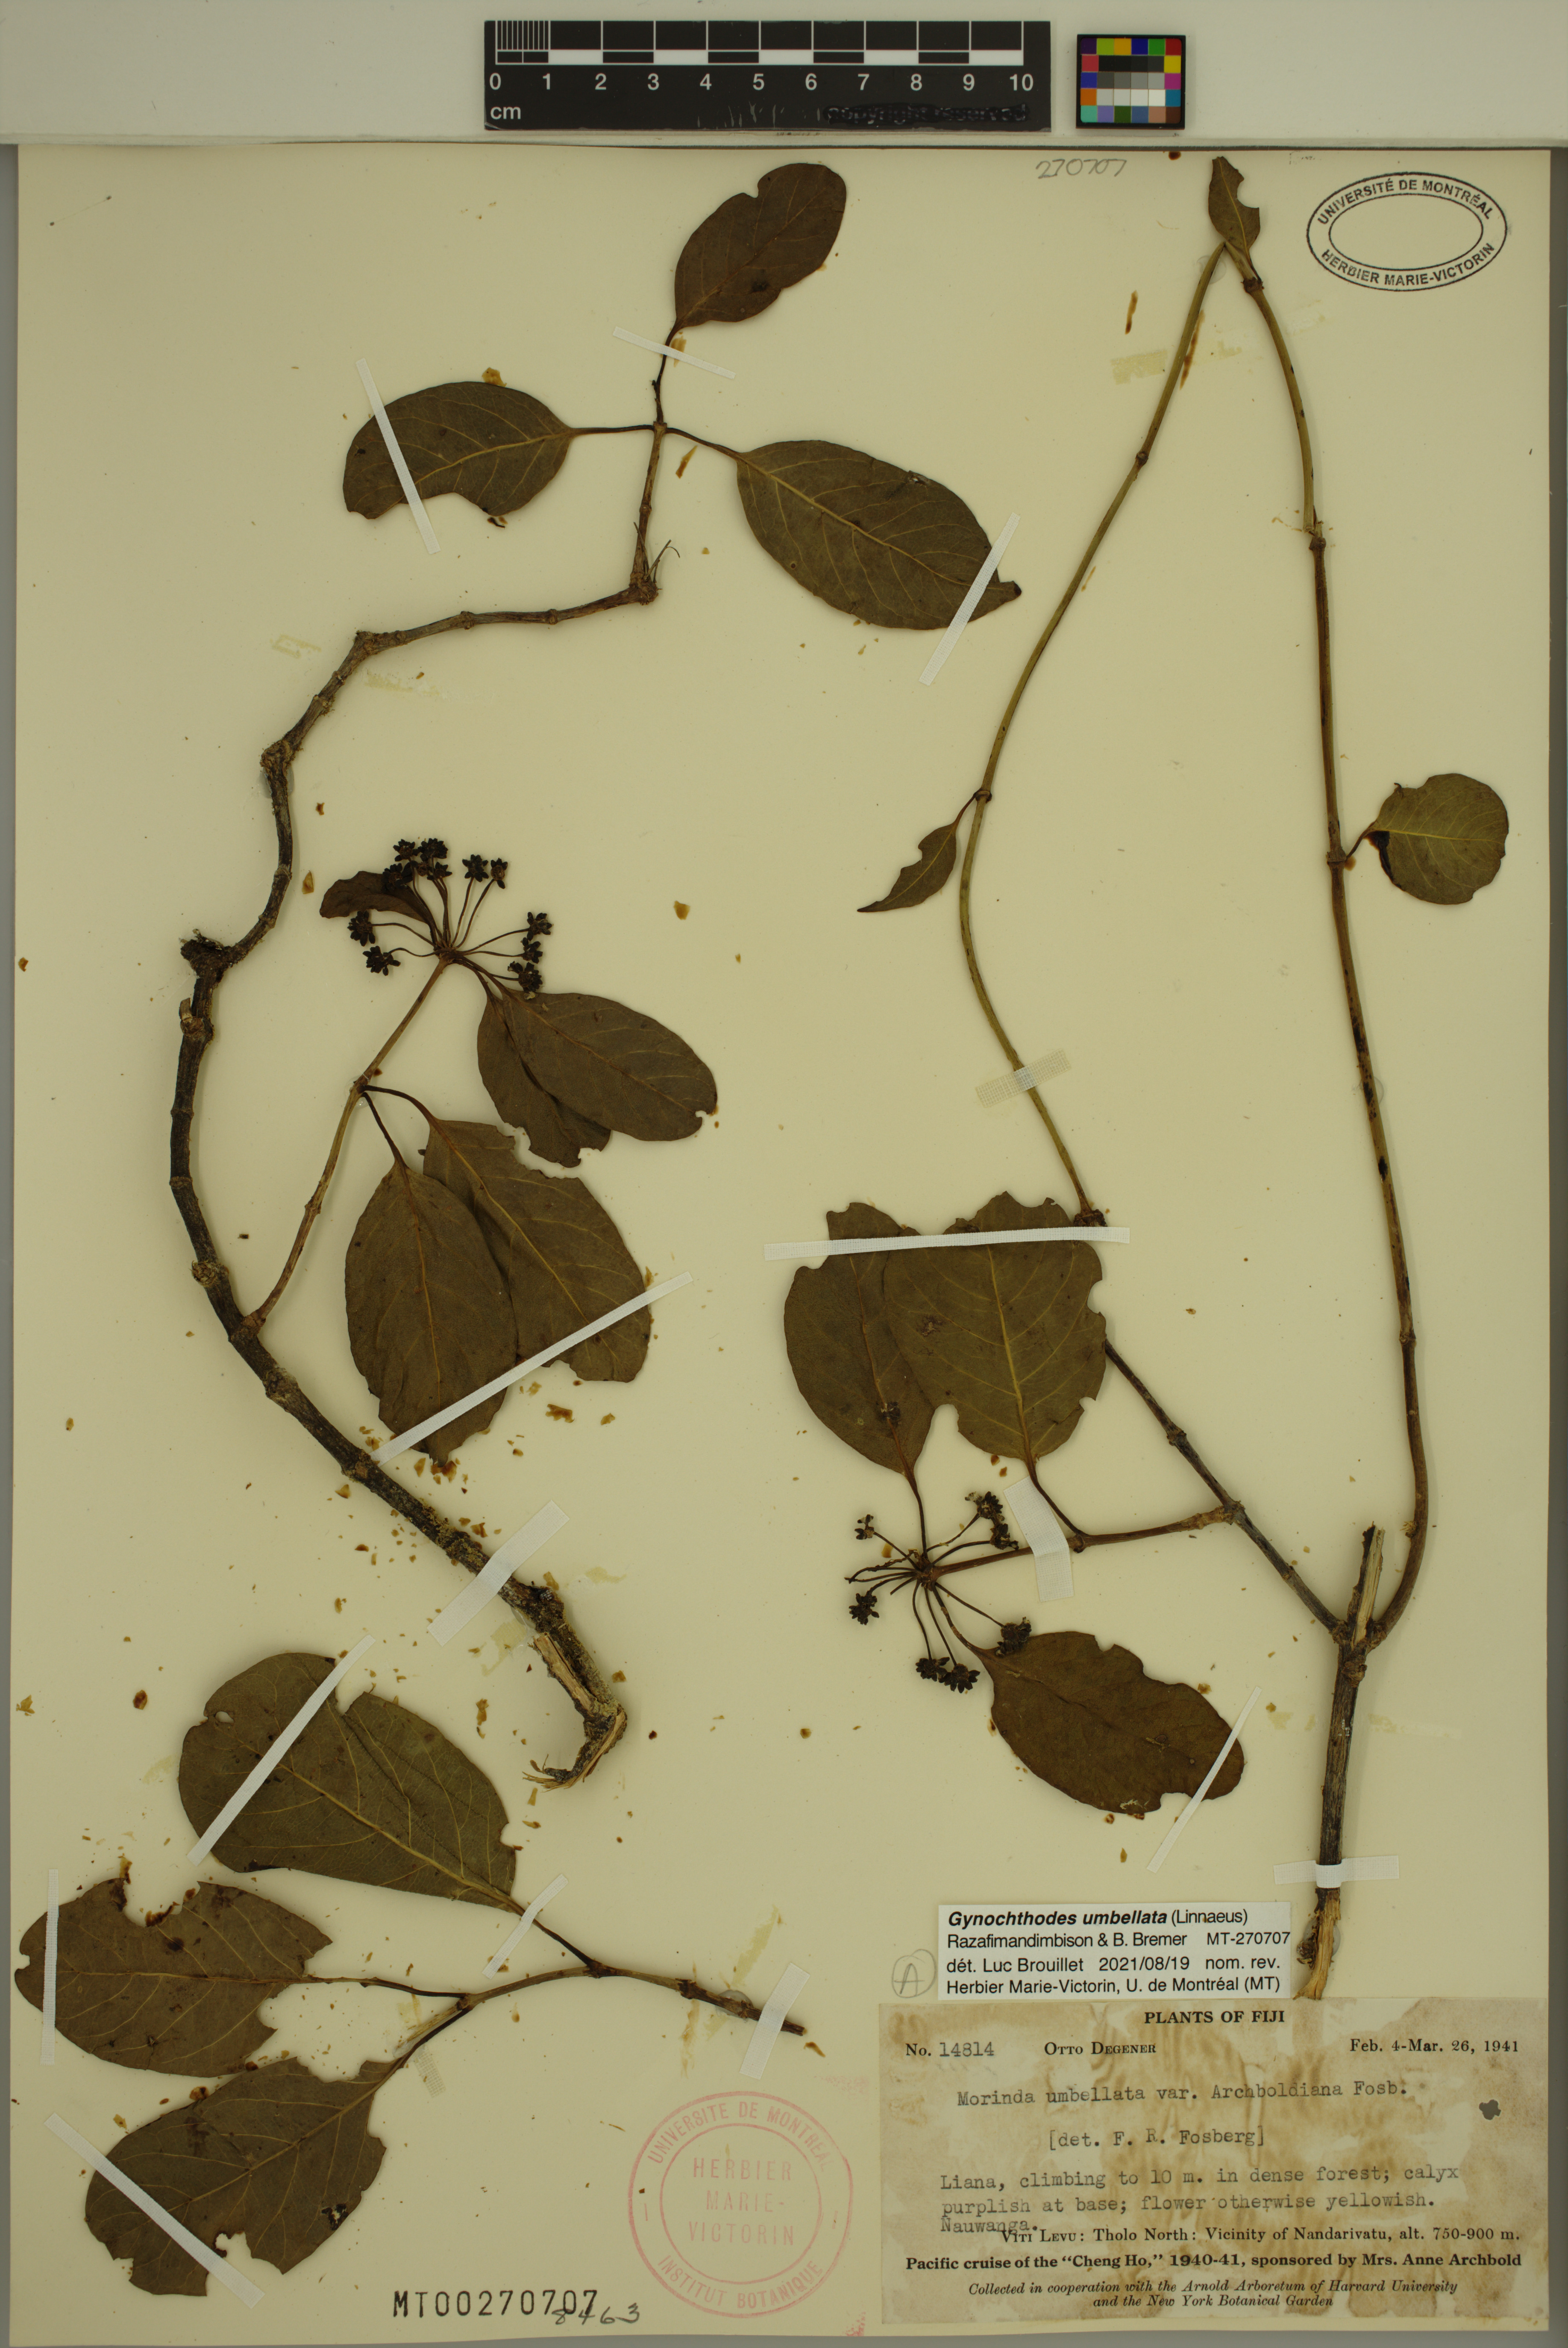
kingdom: Plantae
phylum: Tracheophyta
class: Magnoliopsida
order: Gentianales
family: Rubiaceae
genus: Gynochthodes
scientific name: Gynochthodes umbellata
